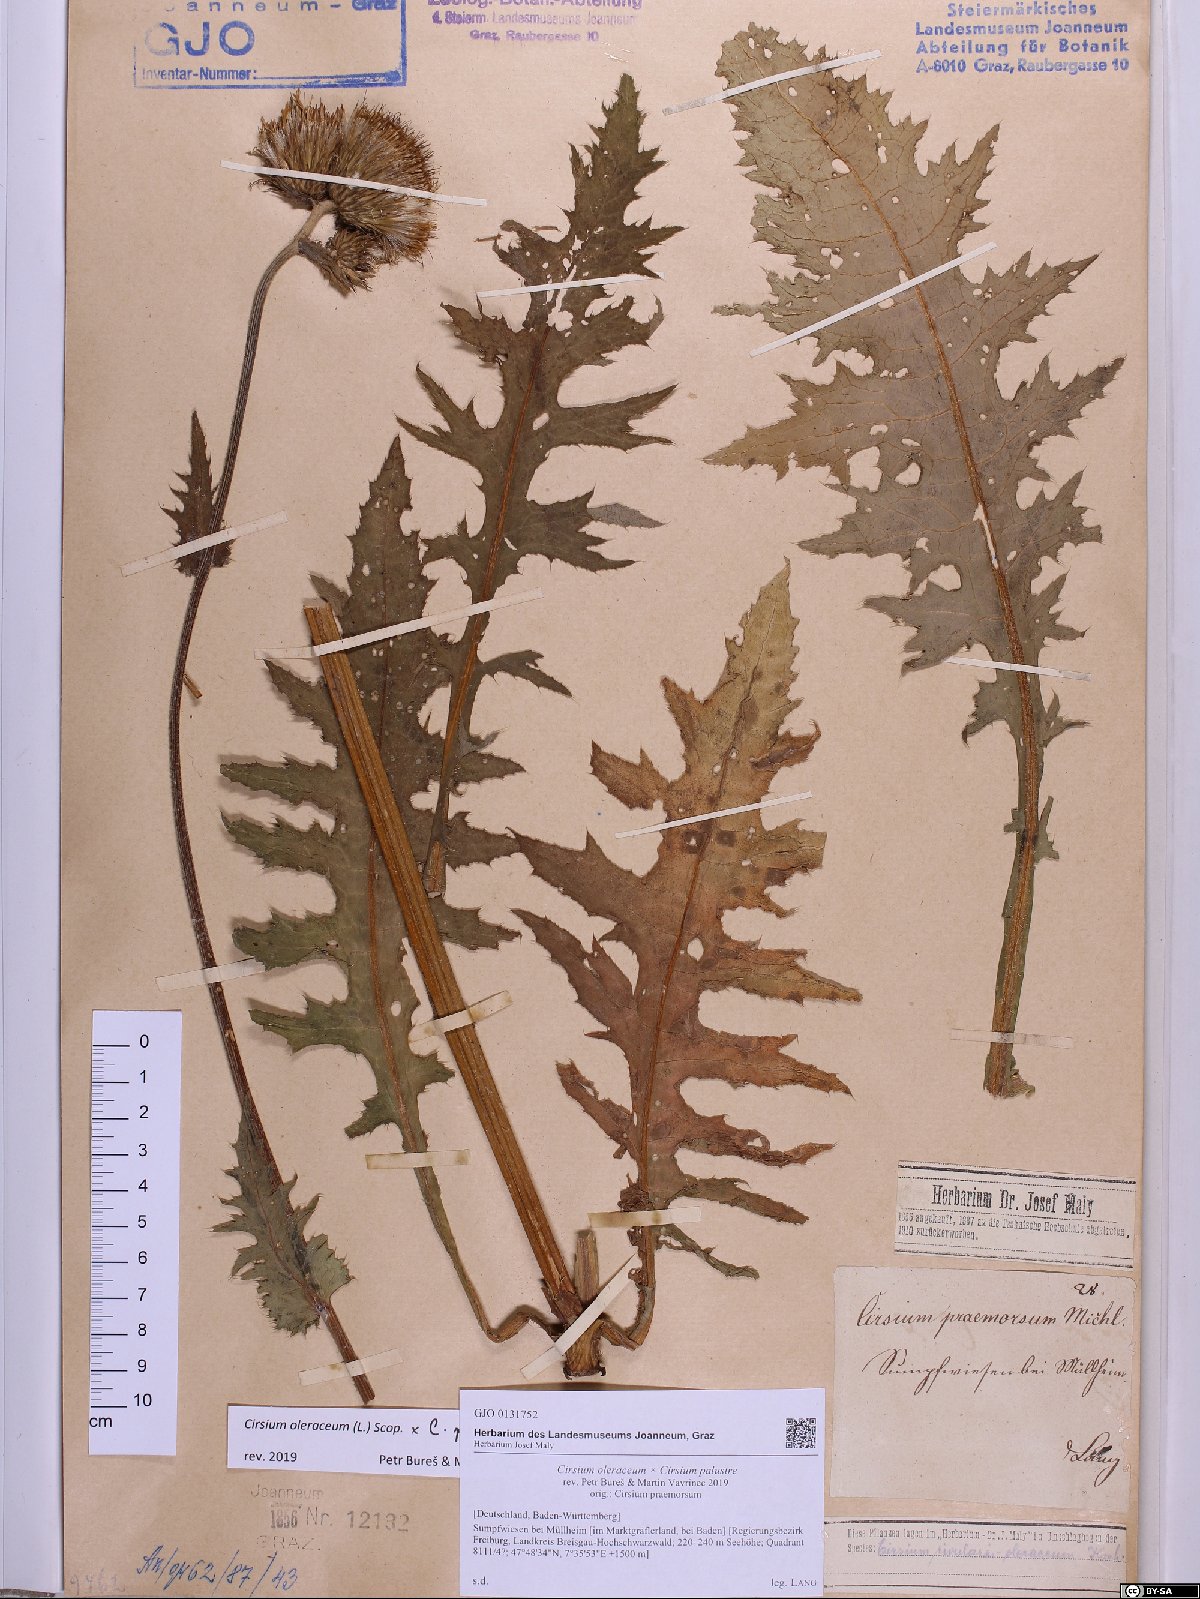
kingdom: Plantae
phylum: Tracheophyta
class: Magnoliopsida
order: Asterales
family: Asteraceae
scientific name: Asteraceae
